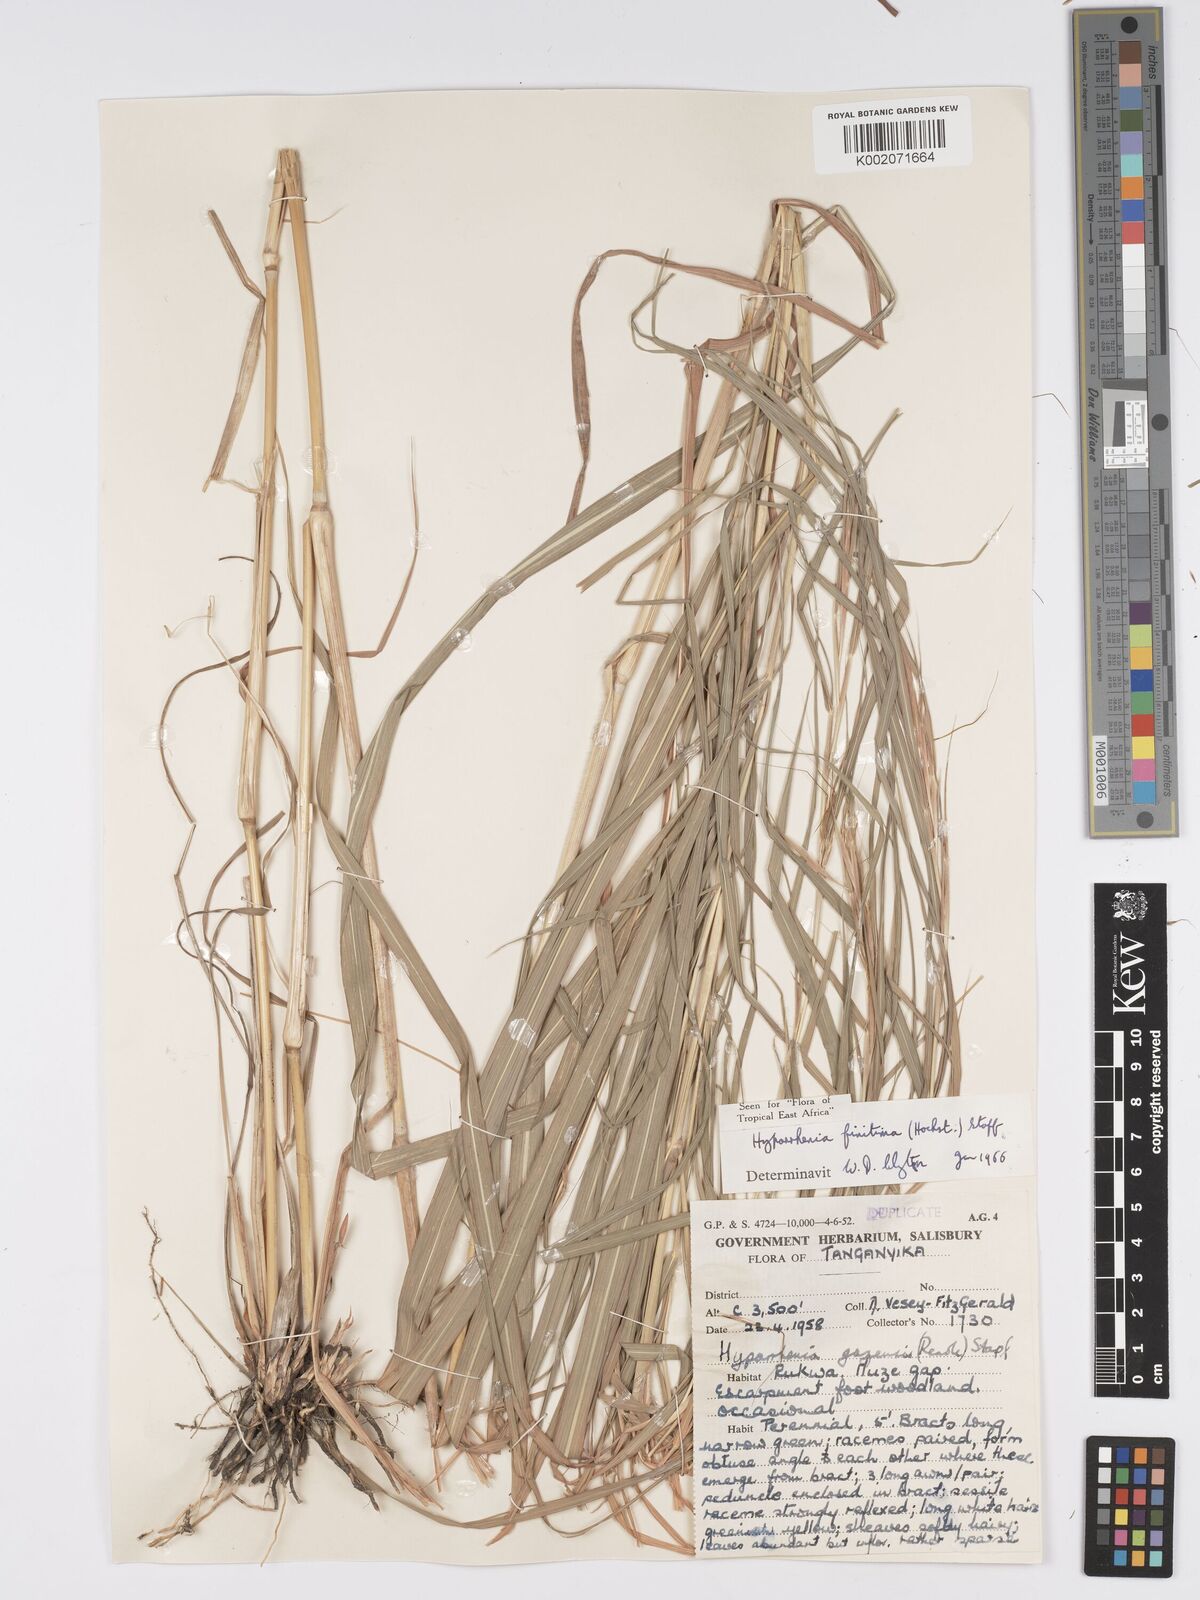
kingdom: Plantae
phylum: Tracheophyta
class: Liliopsida
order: Poales
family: Poaceae
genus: Hyparrhenia
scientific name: Hyparrhenia finitima
